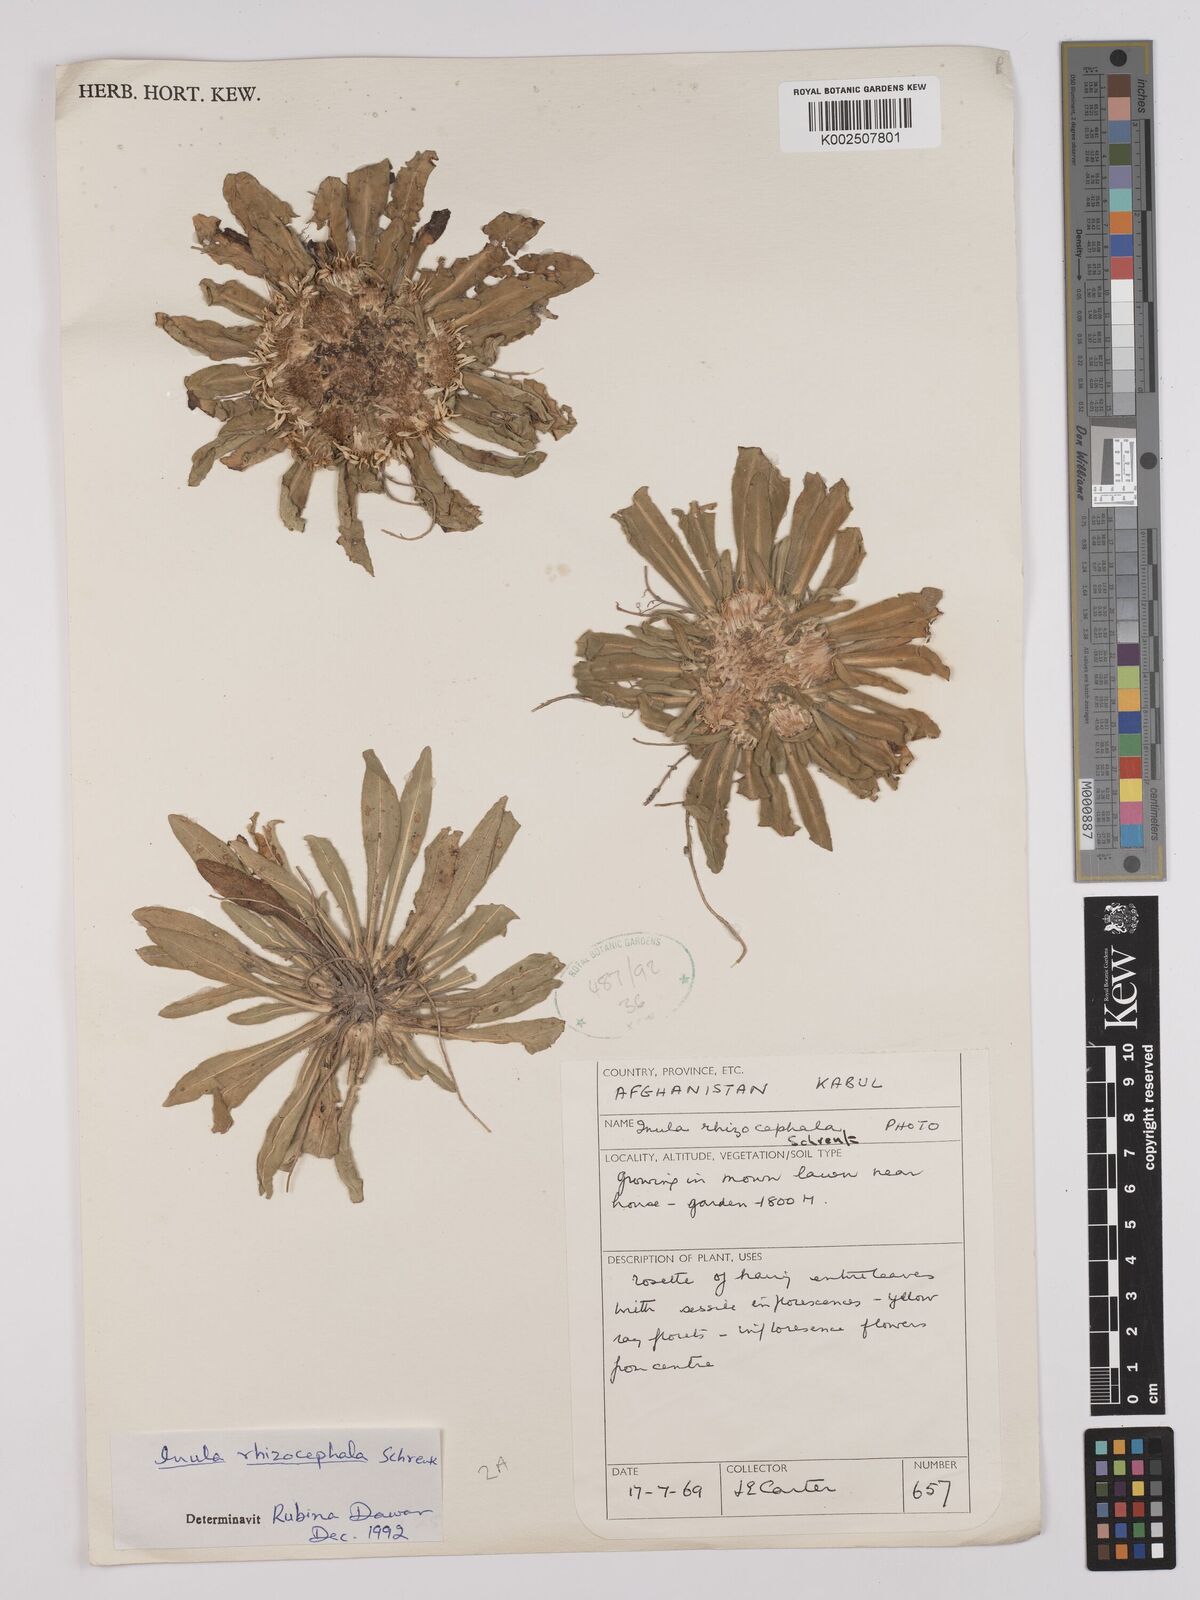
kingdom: Plantae
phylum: Tracheophyta
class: Magnoliopsida
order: Asterales
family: Asteraceae
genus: Inula
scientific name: Inula rhizocephala
